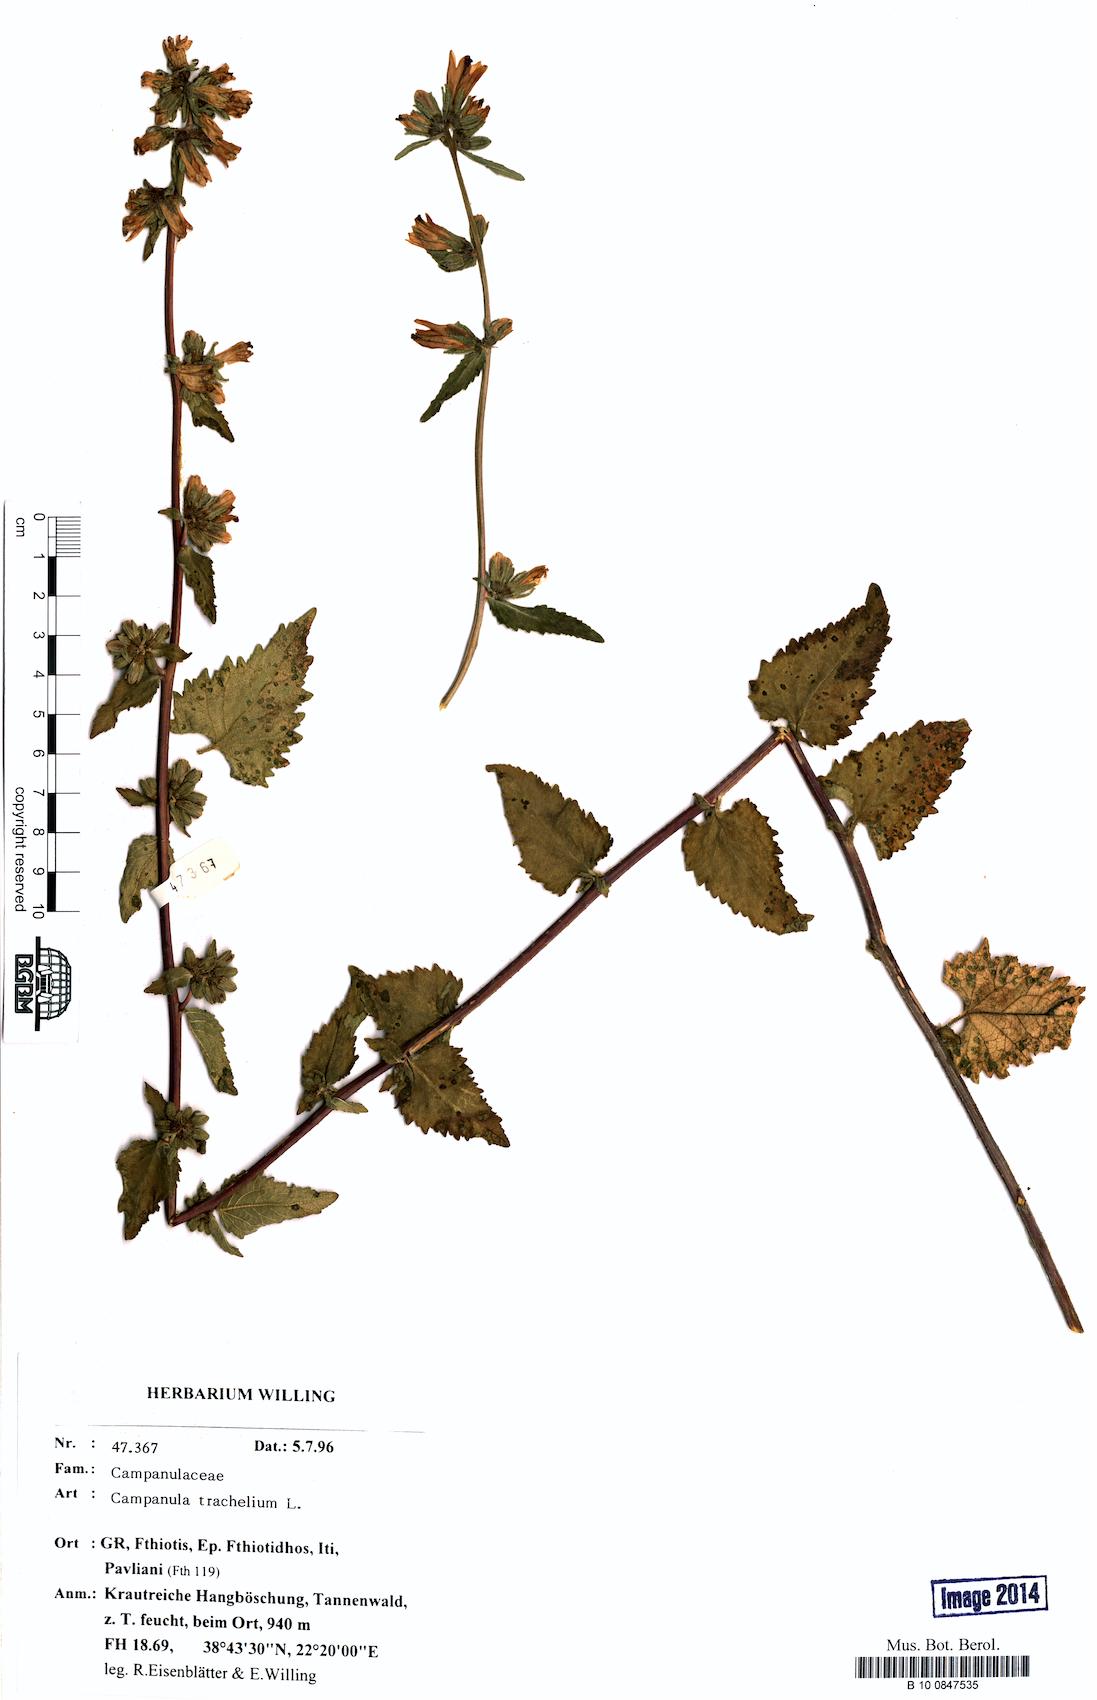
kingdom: Plantae
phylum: Tracheophyta
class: Magnoliopsida
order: Asterales
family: Campanulaceae
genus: Campanula
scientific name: Campanula trachelium
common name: Nettle-leaved bellflower
